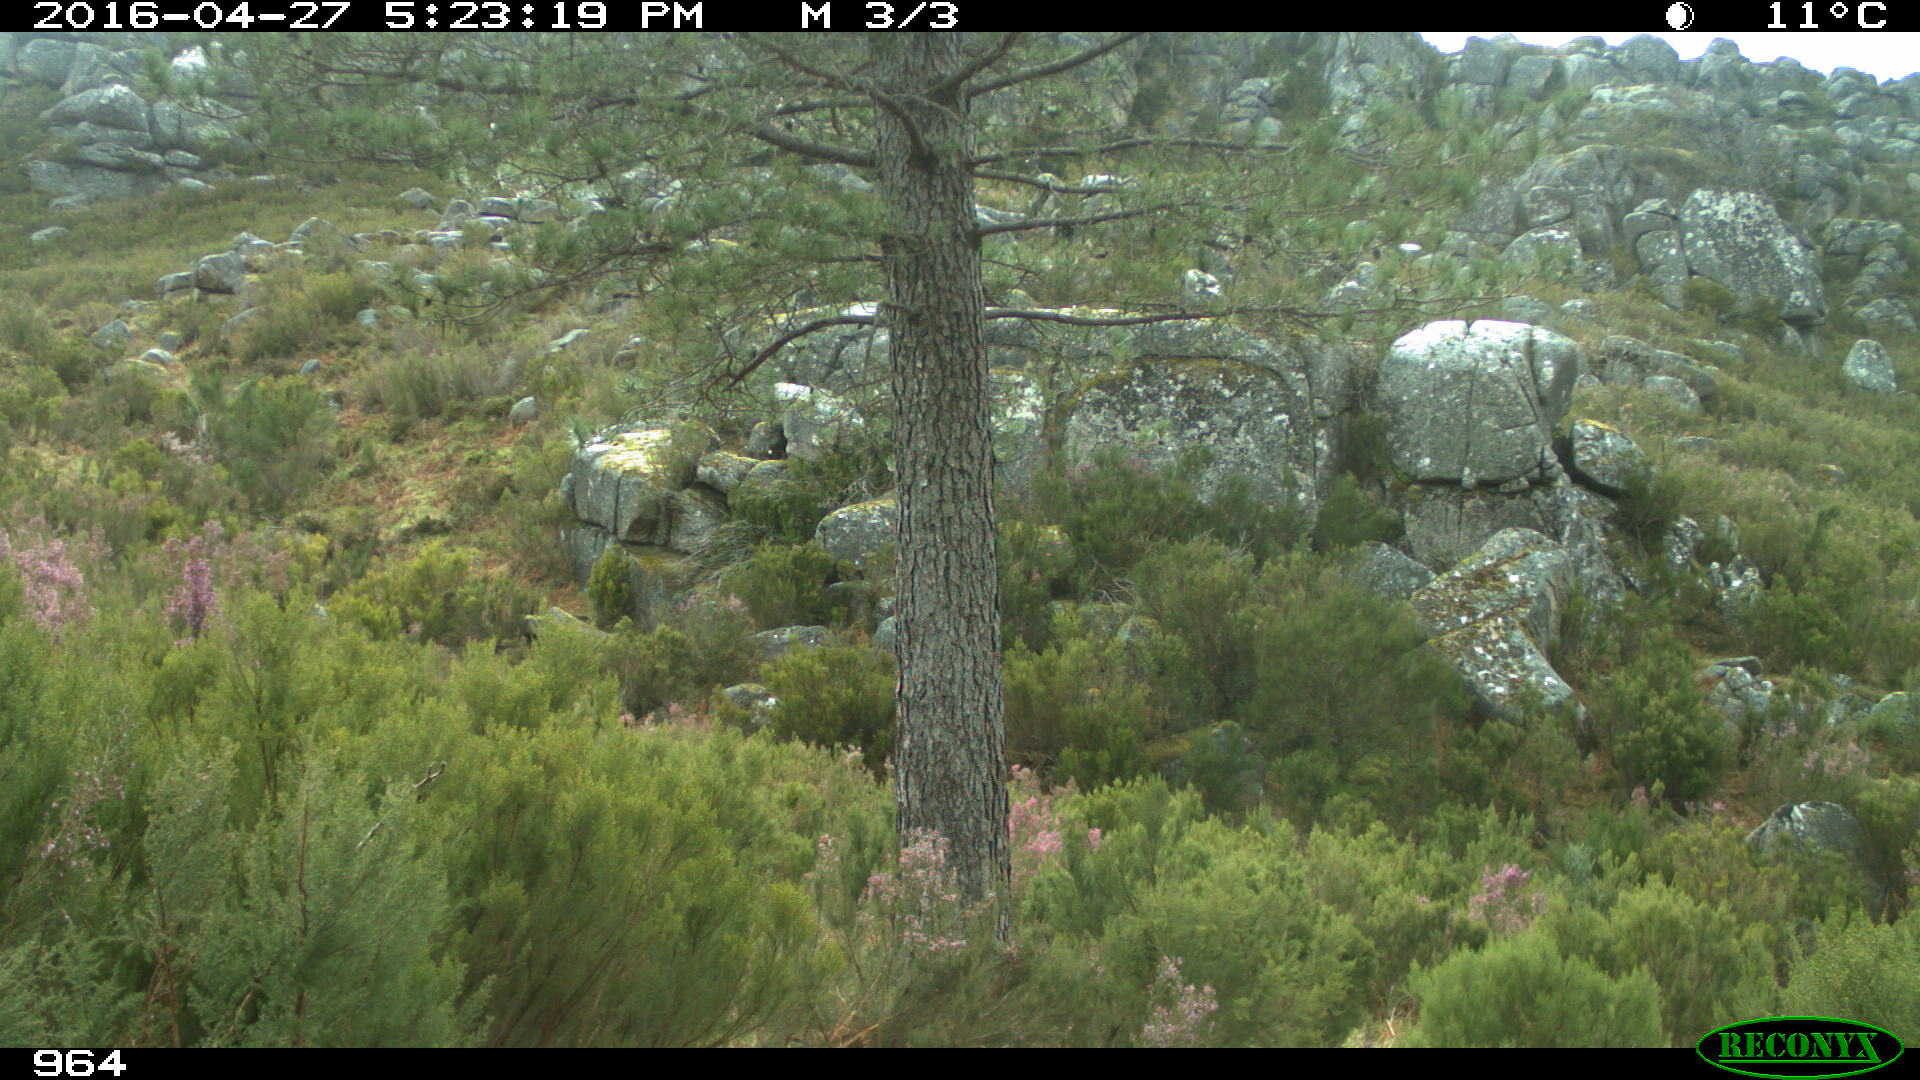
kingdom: Animalia
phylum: Chordata
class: Mammalia
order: Perissodactyla
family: Equidae
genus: Equus
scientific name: Equus caballus
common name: Horse
